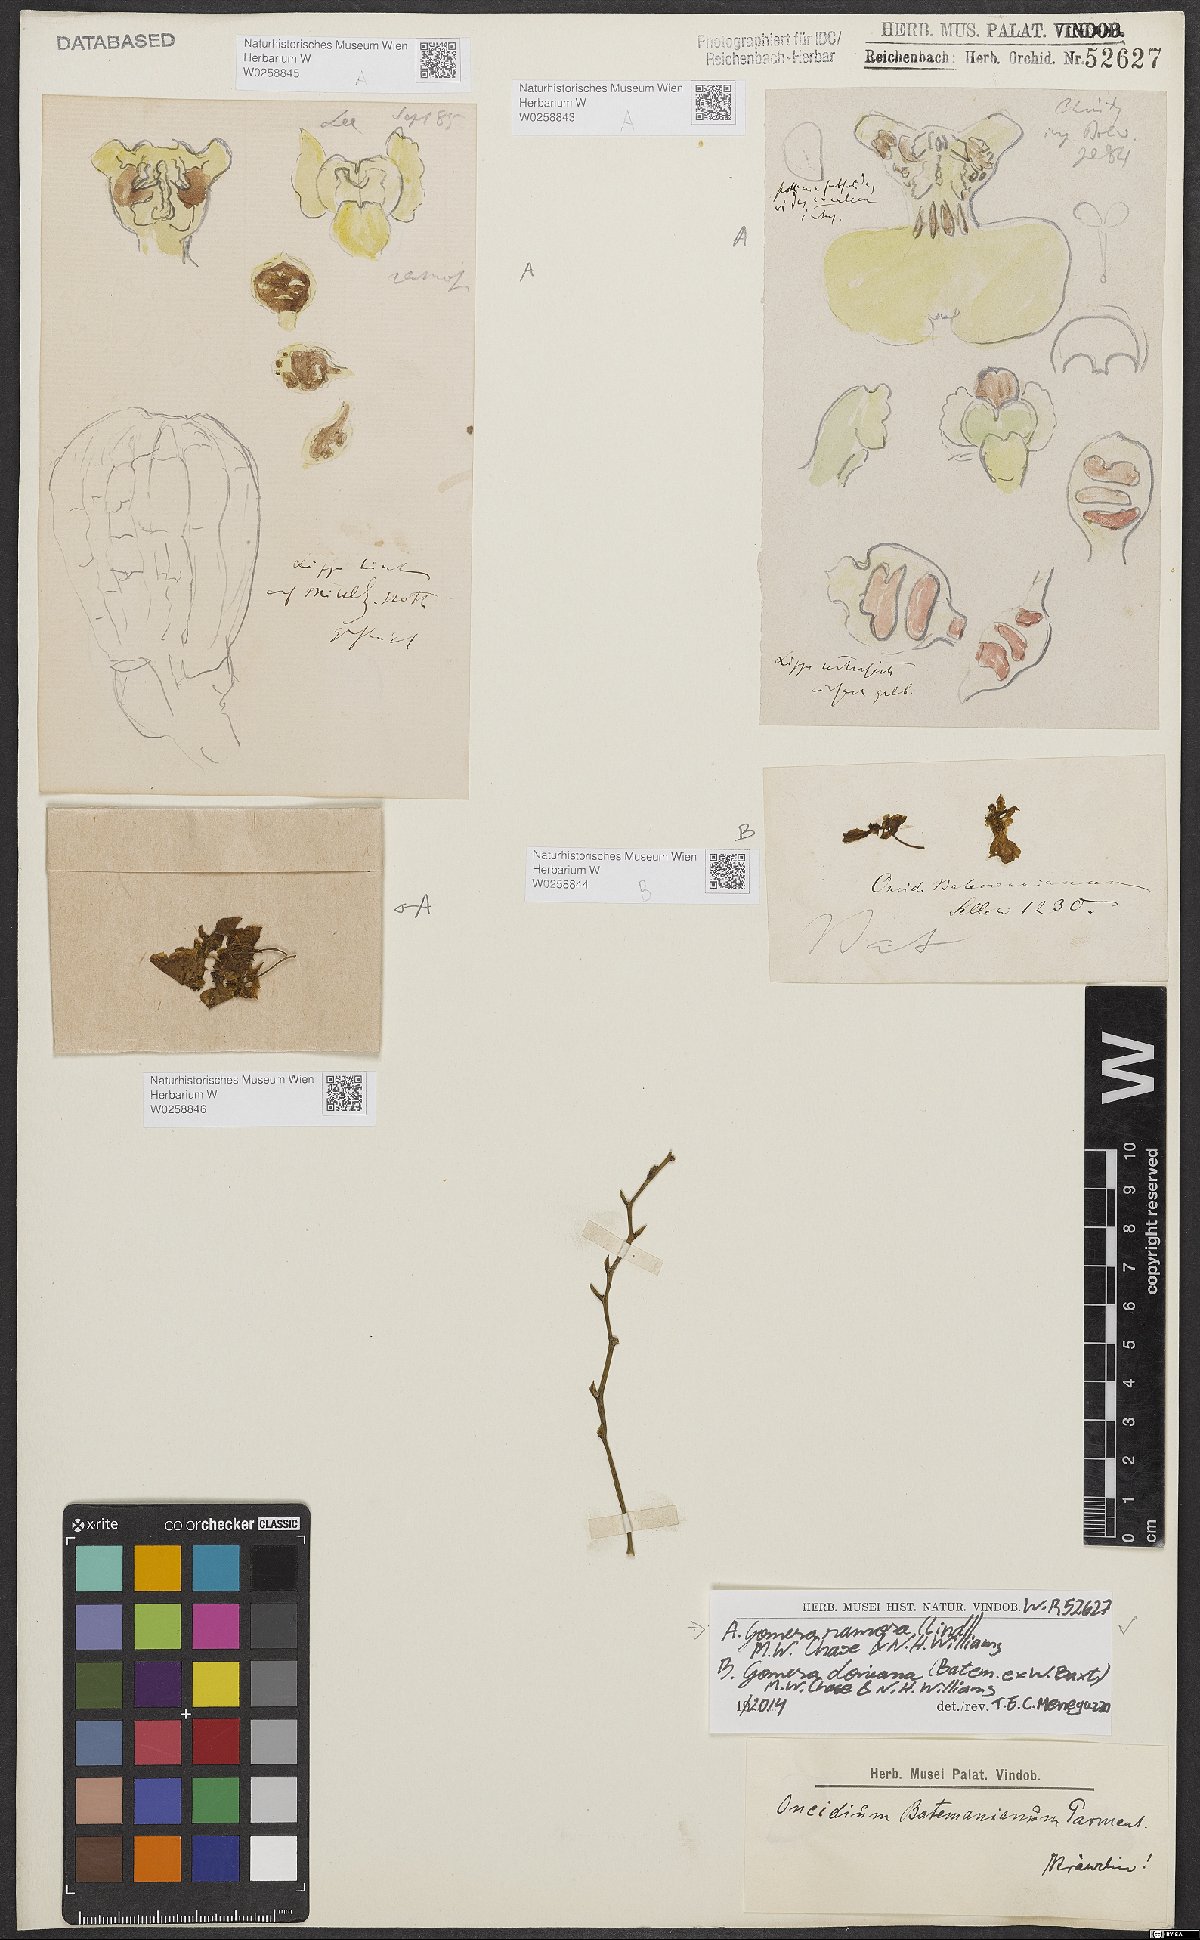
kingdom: Plantae
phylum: Tracheophyta
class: Liliopsida
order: Asparagales
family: Orchidaceae
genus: Gomesa
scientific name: Gomesa ramosa
